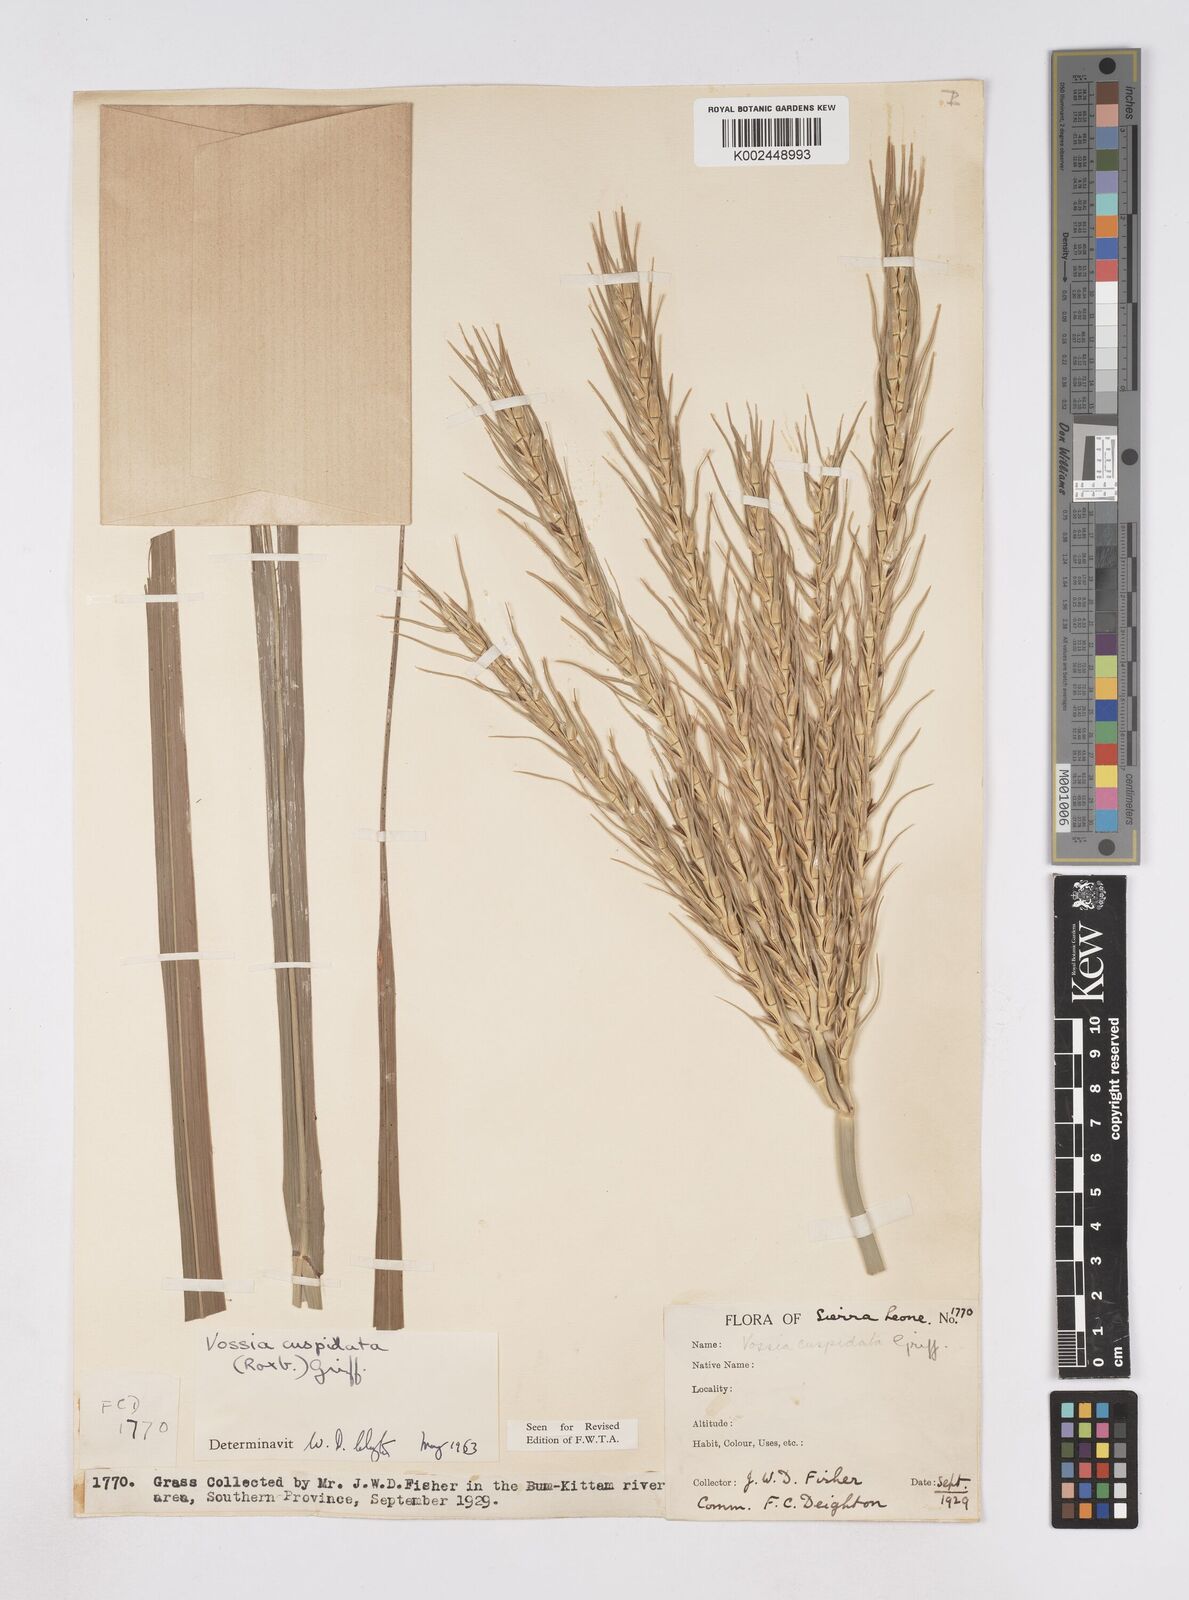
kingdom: Plantae
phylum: Tracheophyta
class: Liliopsida
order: Poales
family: Poaceae
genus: Vossia
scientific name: Vossia cuspidata
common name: Hippo grass
